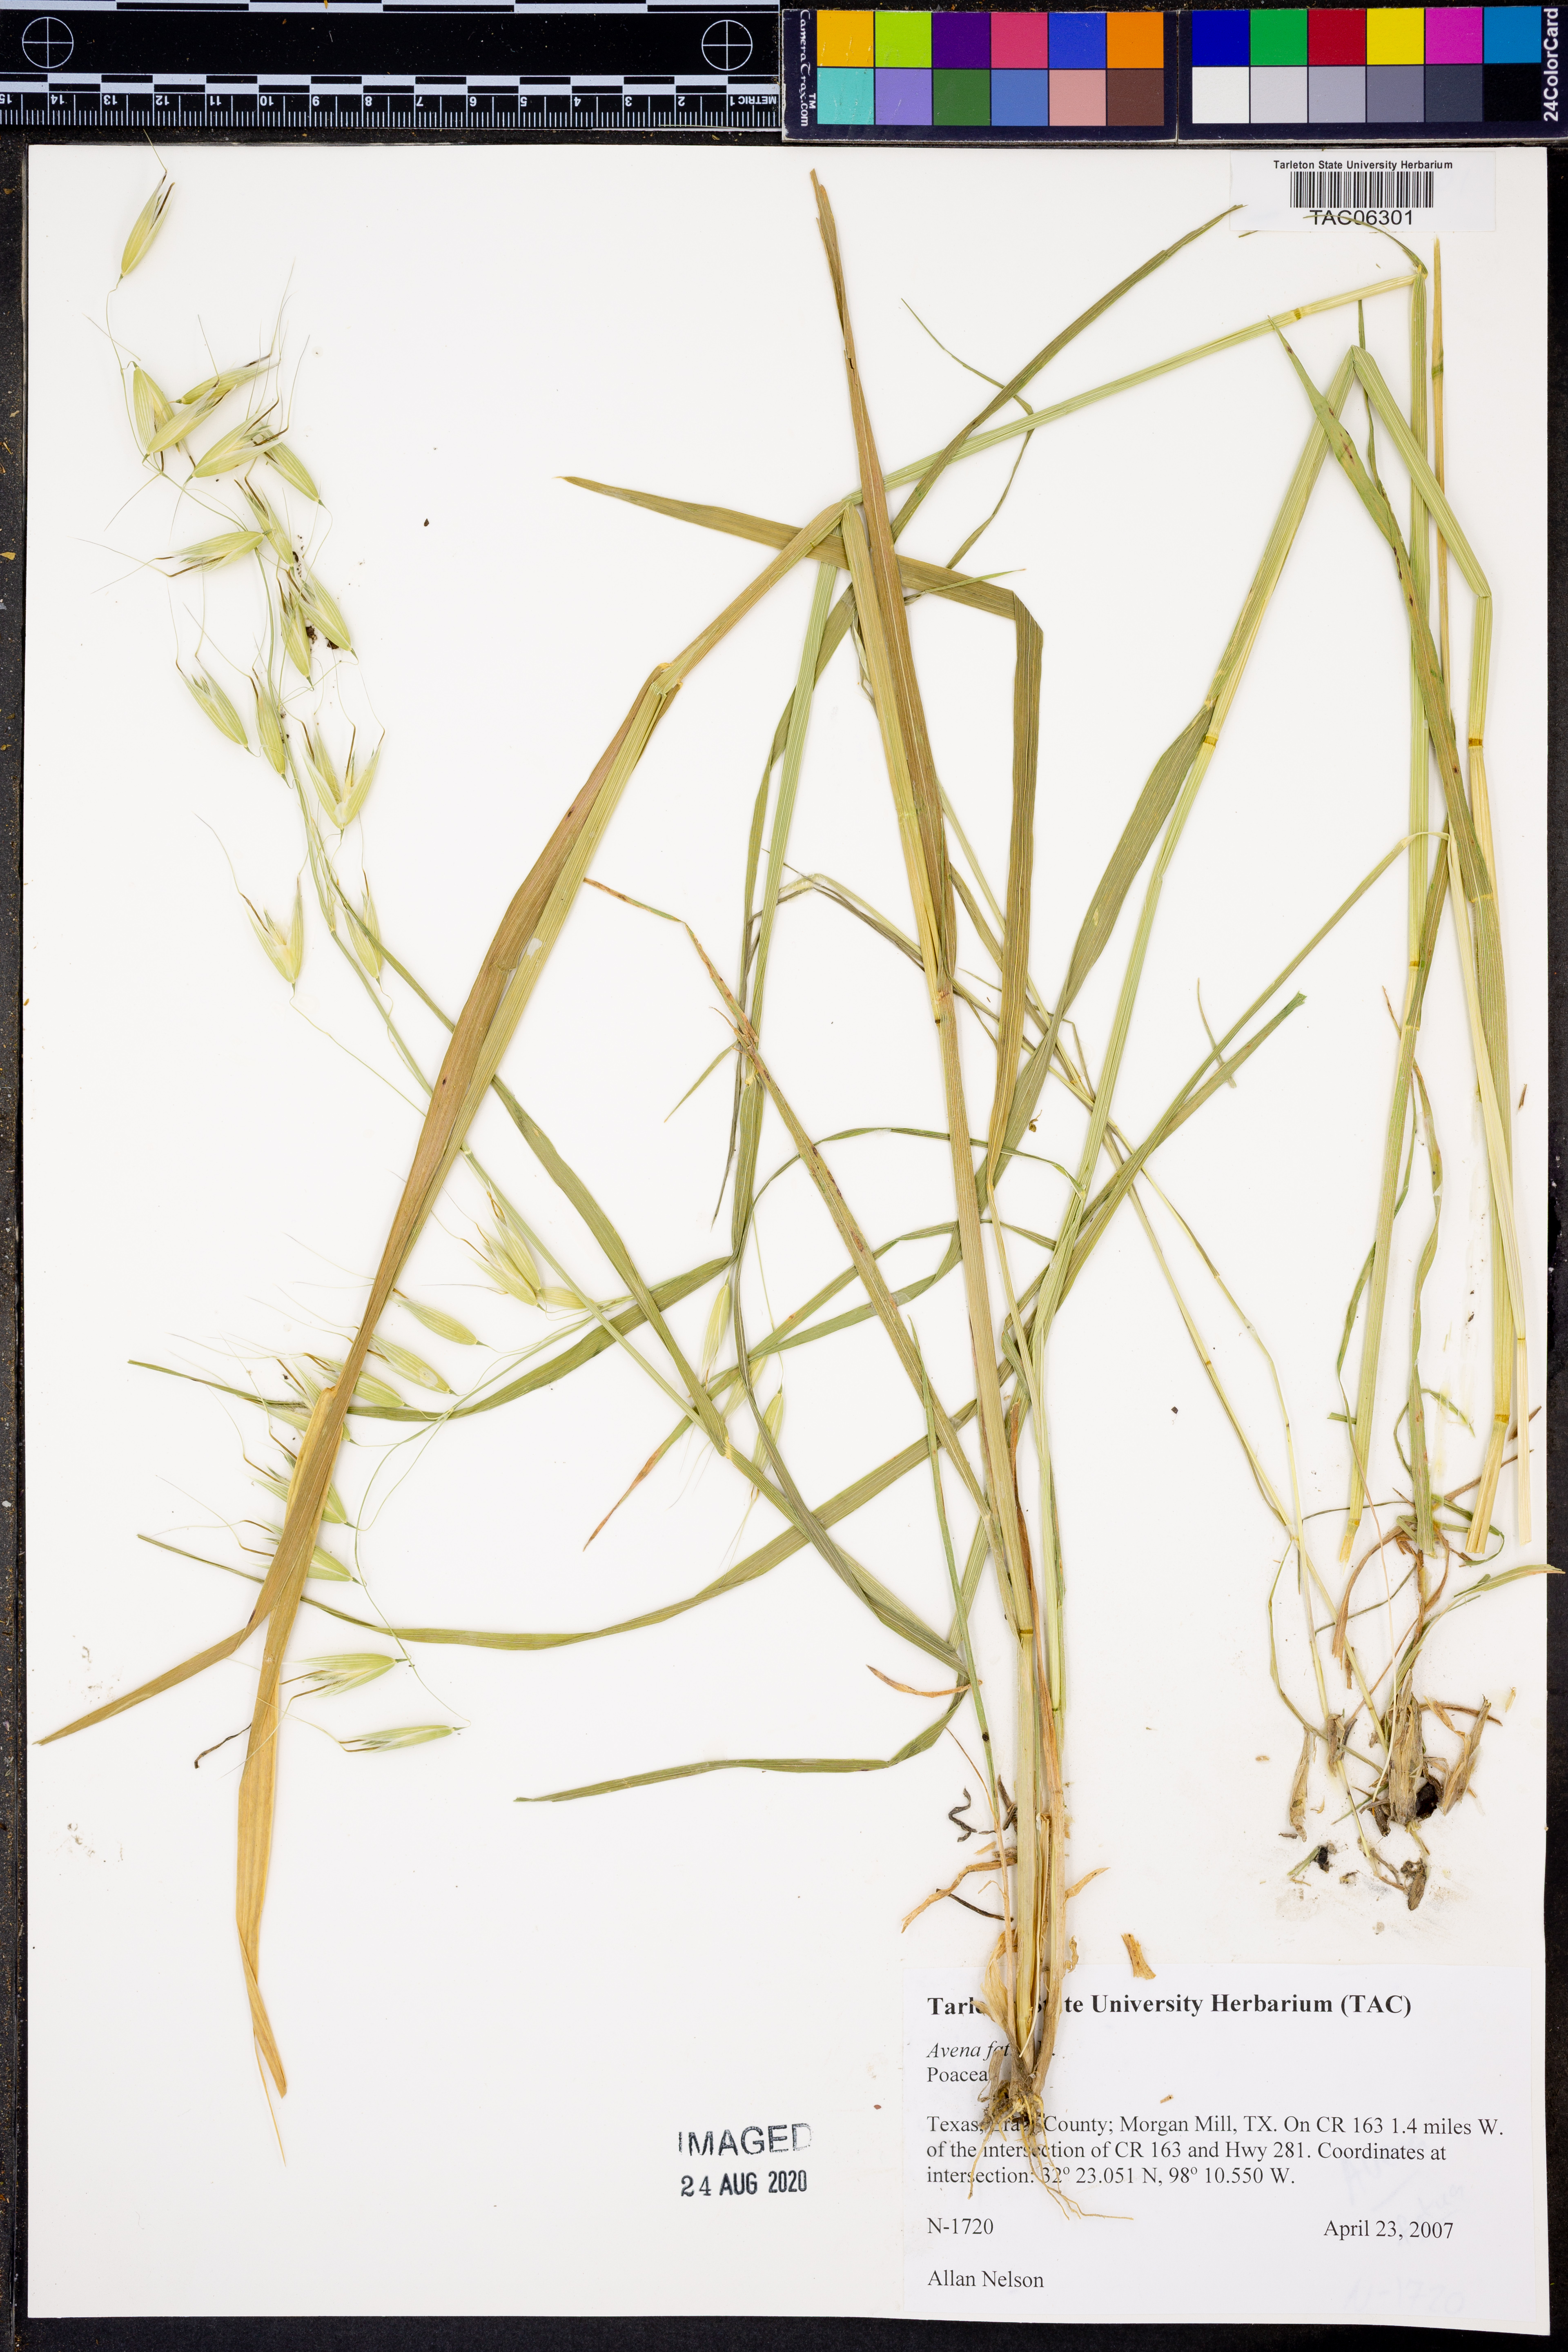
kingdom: Plantae
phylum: Tracheophyta
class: Liliopsida
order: Poales
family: Poaceae
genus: Avena
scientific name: Avena fatua
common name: Wild oat
